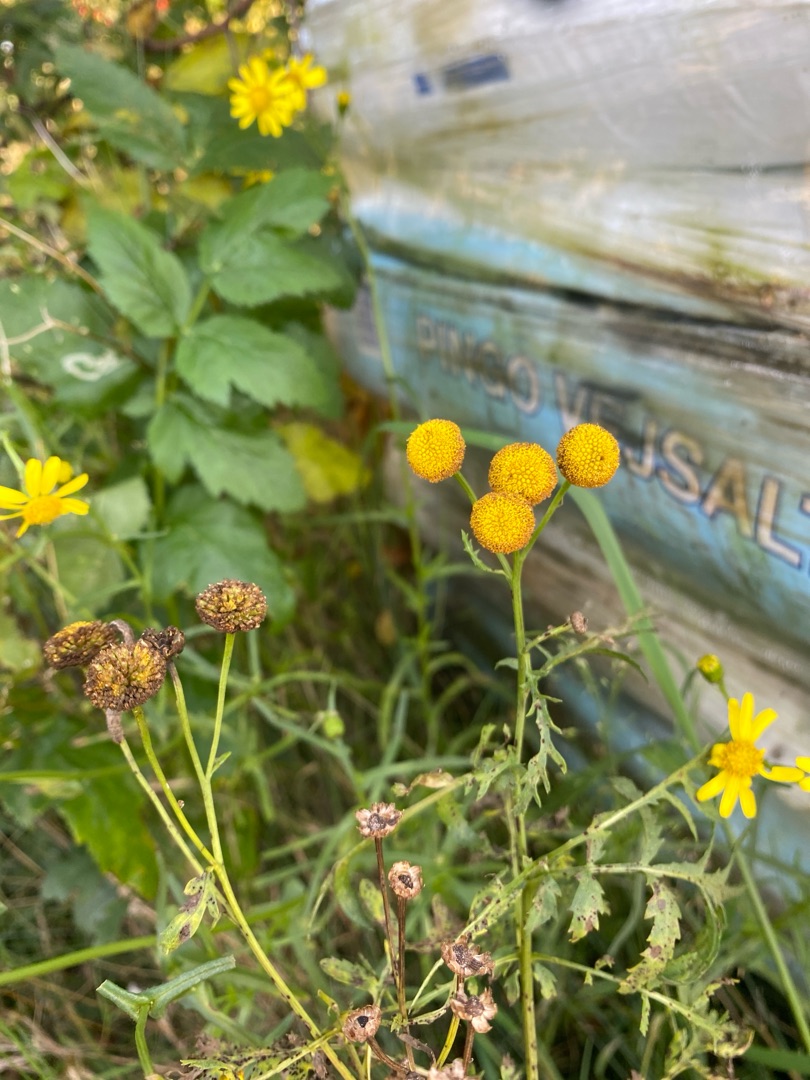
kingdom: Plantae
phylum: Tracheophyta
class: Magnoliopsida
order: Asterales
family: Asteraceae
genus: Tanacetum
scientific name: Tanacetum vulgare
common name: Rejnfan
